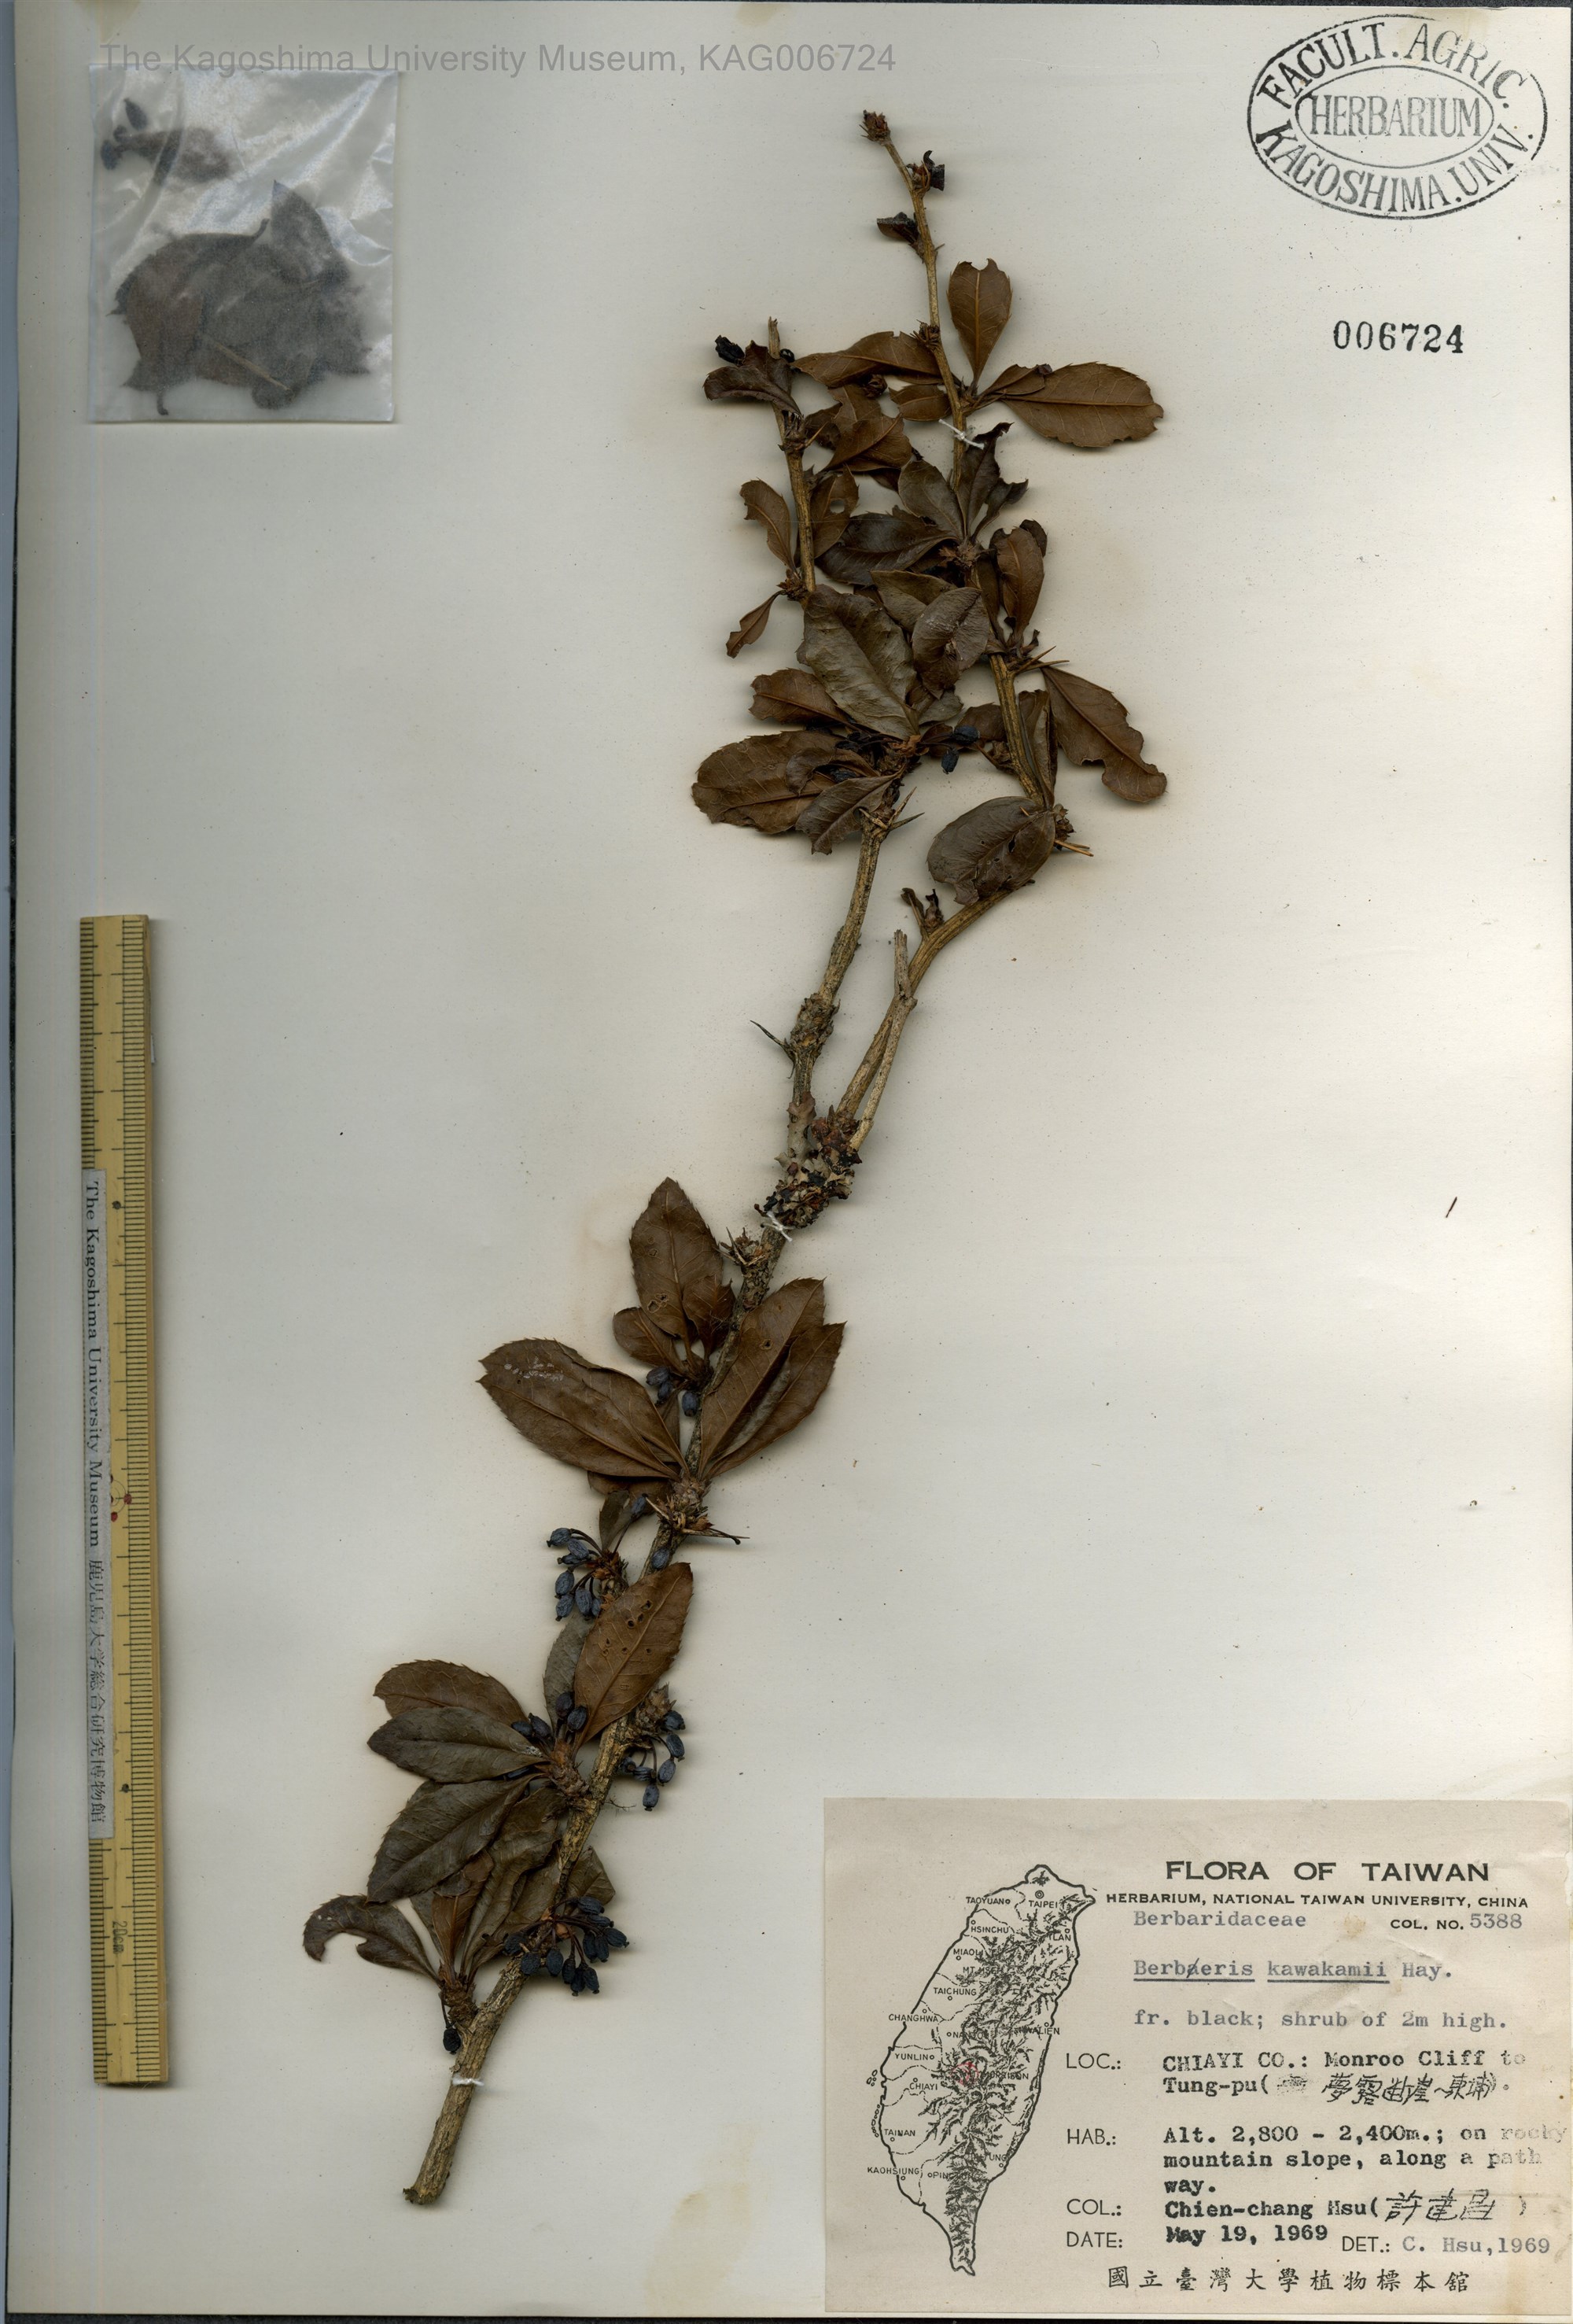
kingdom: Plantae
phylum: Tracheophyta
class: Magnoliopsida
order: Ranunculales
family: Berberidaceae
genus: Berberis
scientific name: Berberis kawakamii
